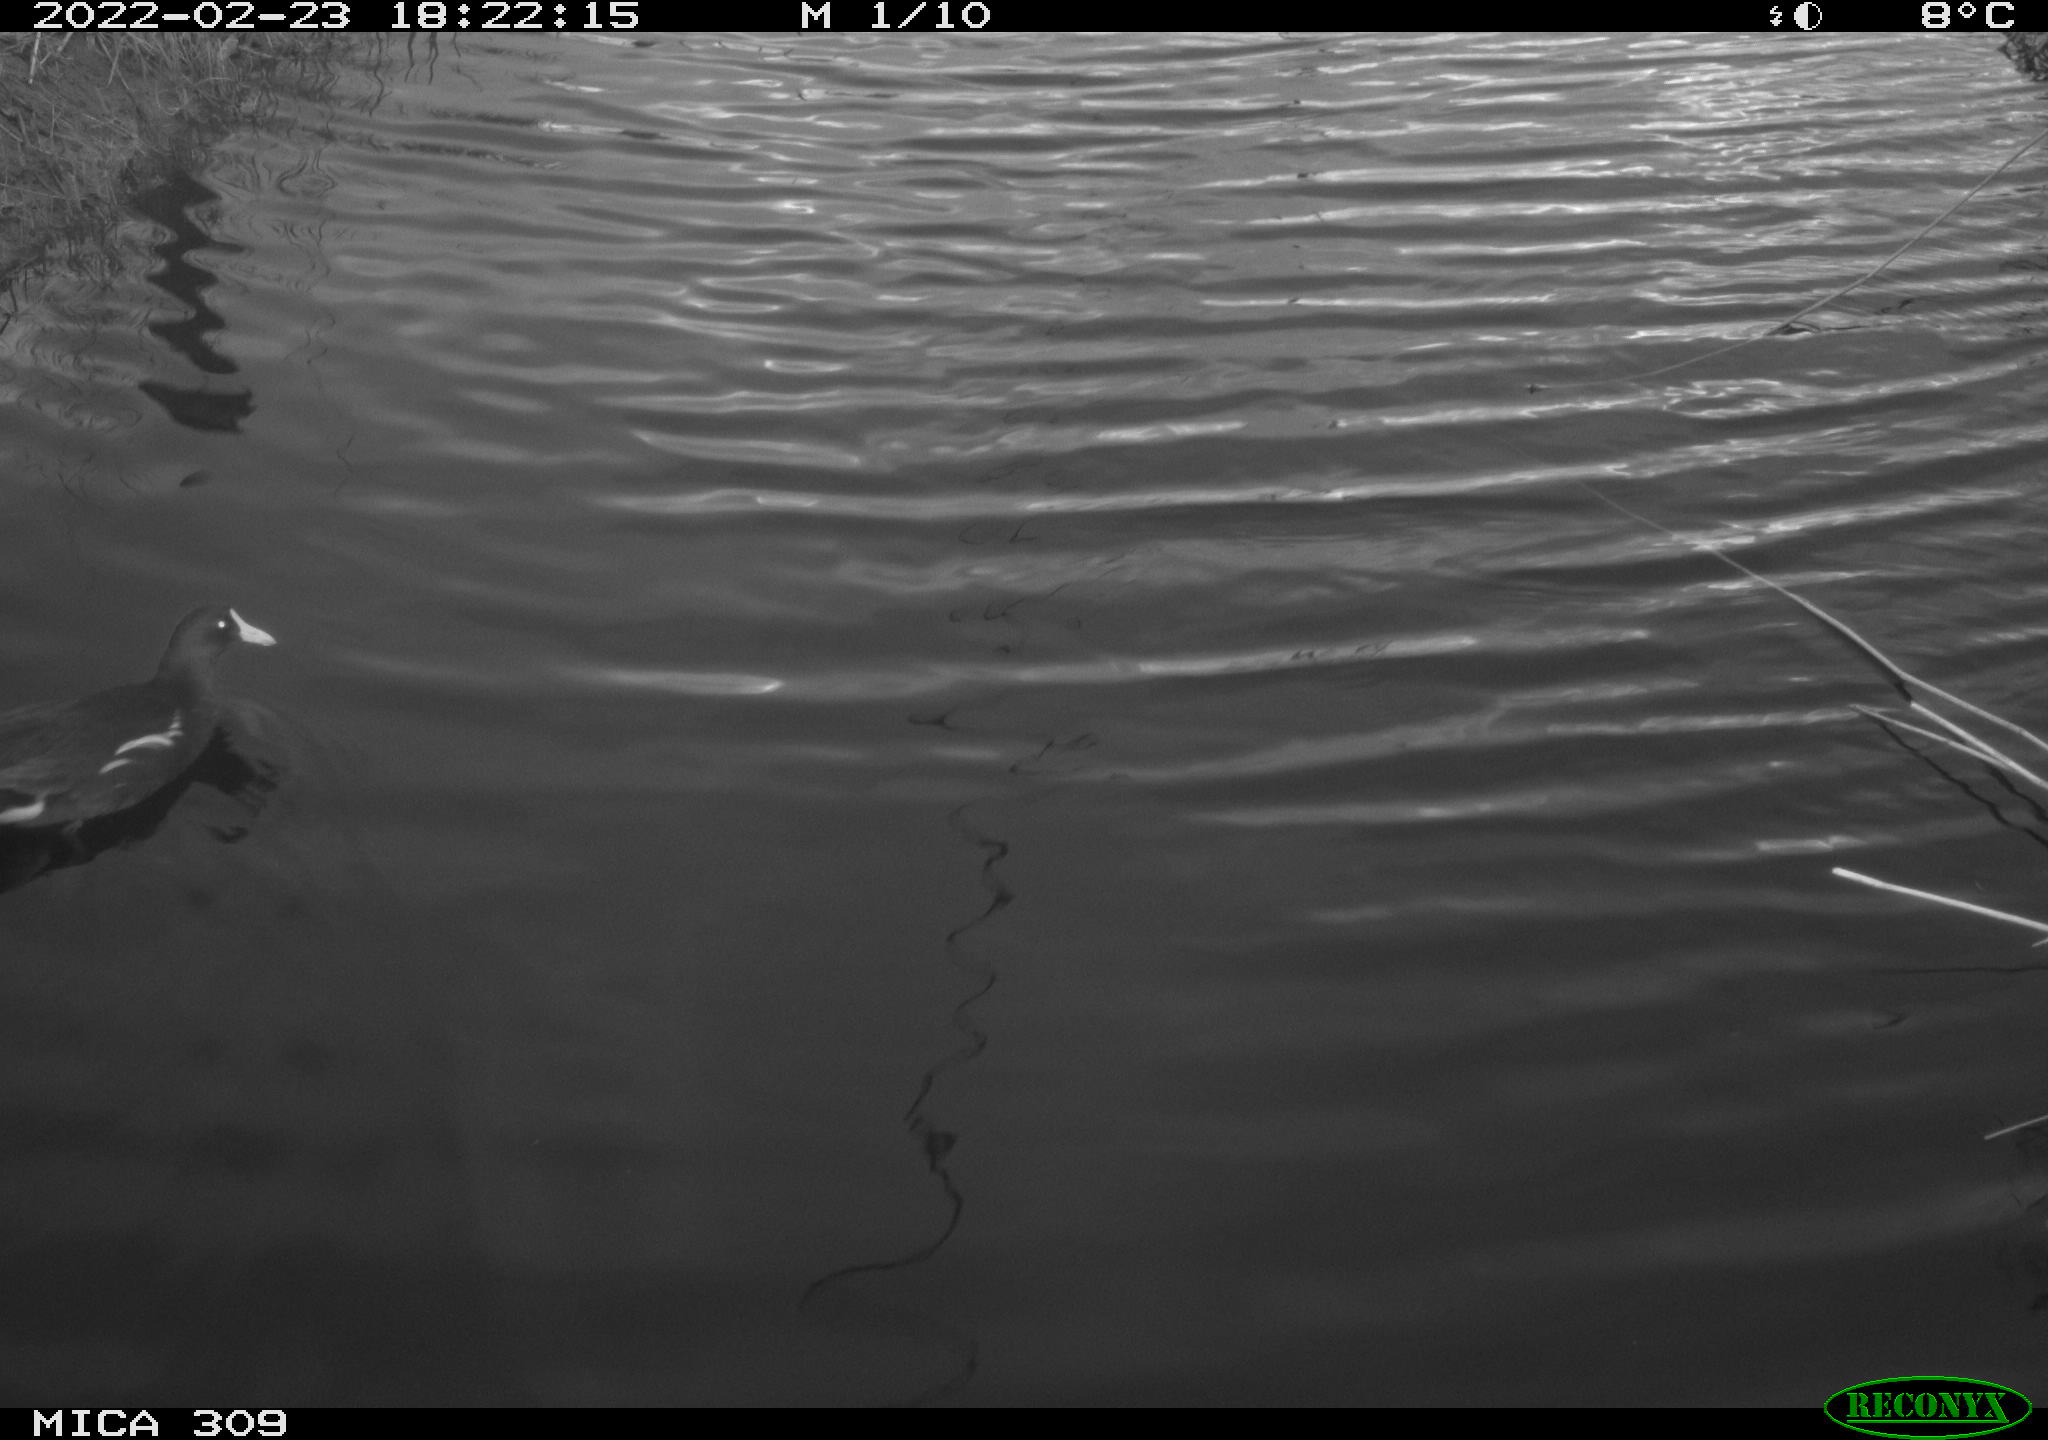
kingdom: Animalia
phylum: Chordata
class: Aves
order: Gruiformes
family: Rallidae
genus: Gallinula
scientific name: Gallinula chloropus
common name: Common moorhen
